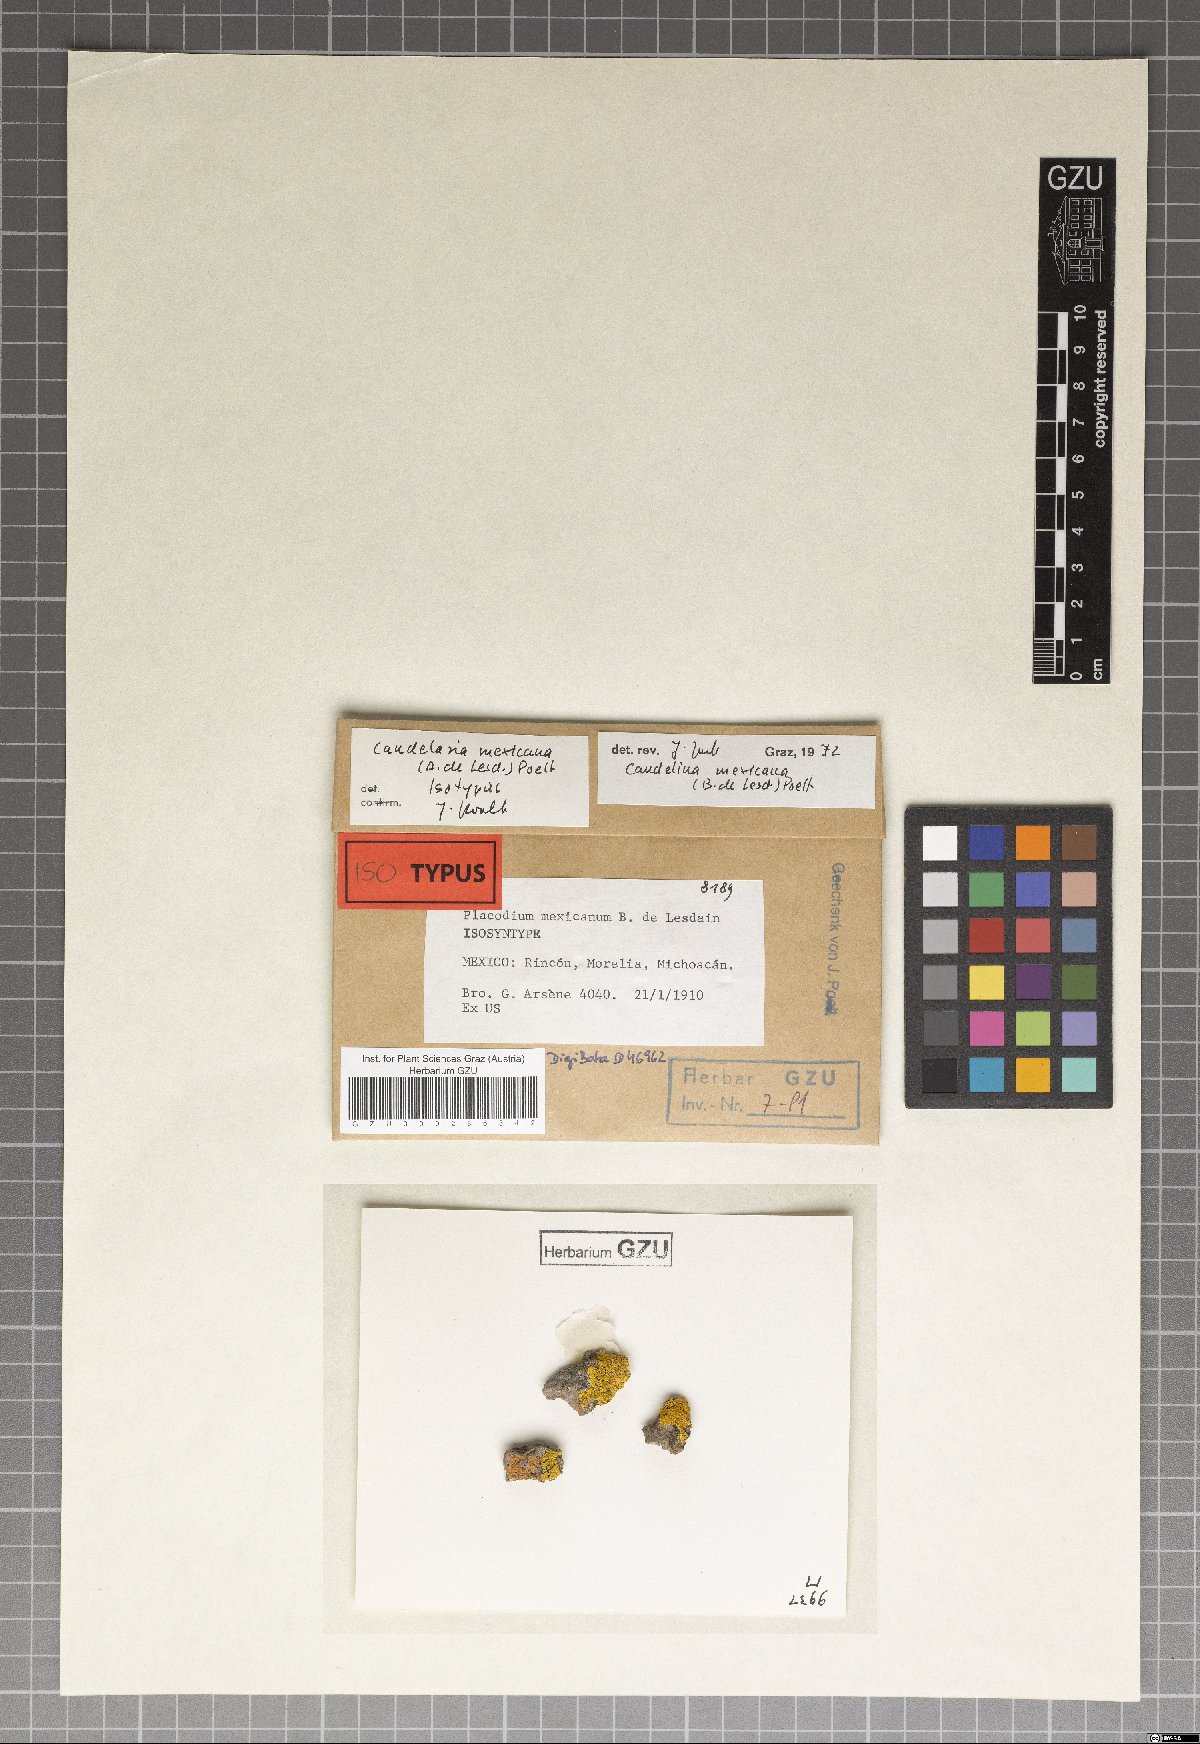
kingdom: Fungi
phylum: Ascomycota
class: Candelariomycetes
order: Candelariales
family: Candelariaceae
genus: Candelina
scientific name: Candelina mexicana
